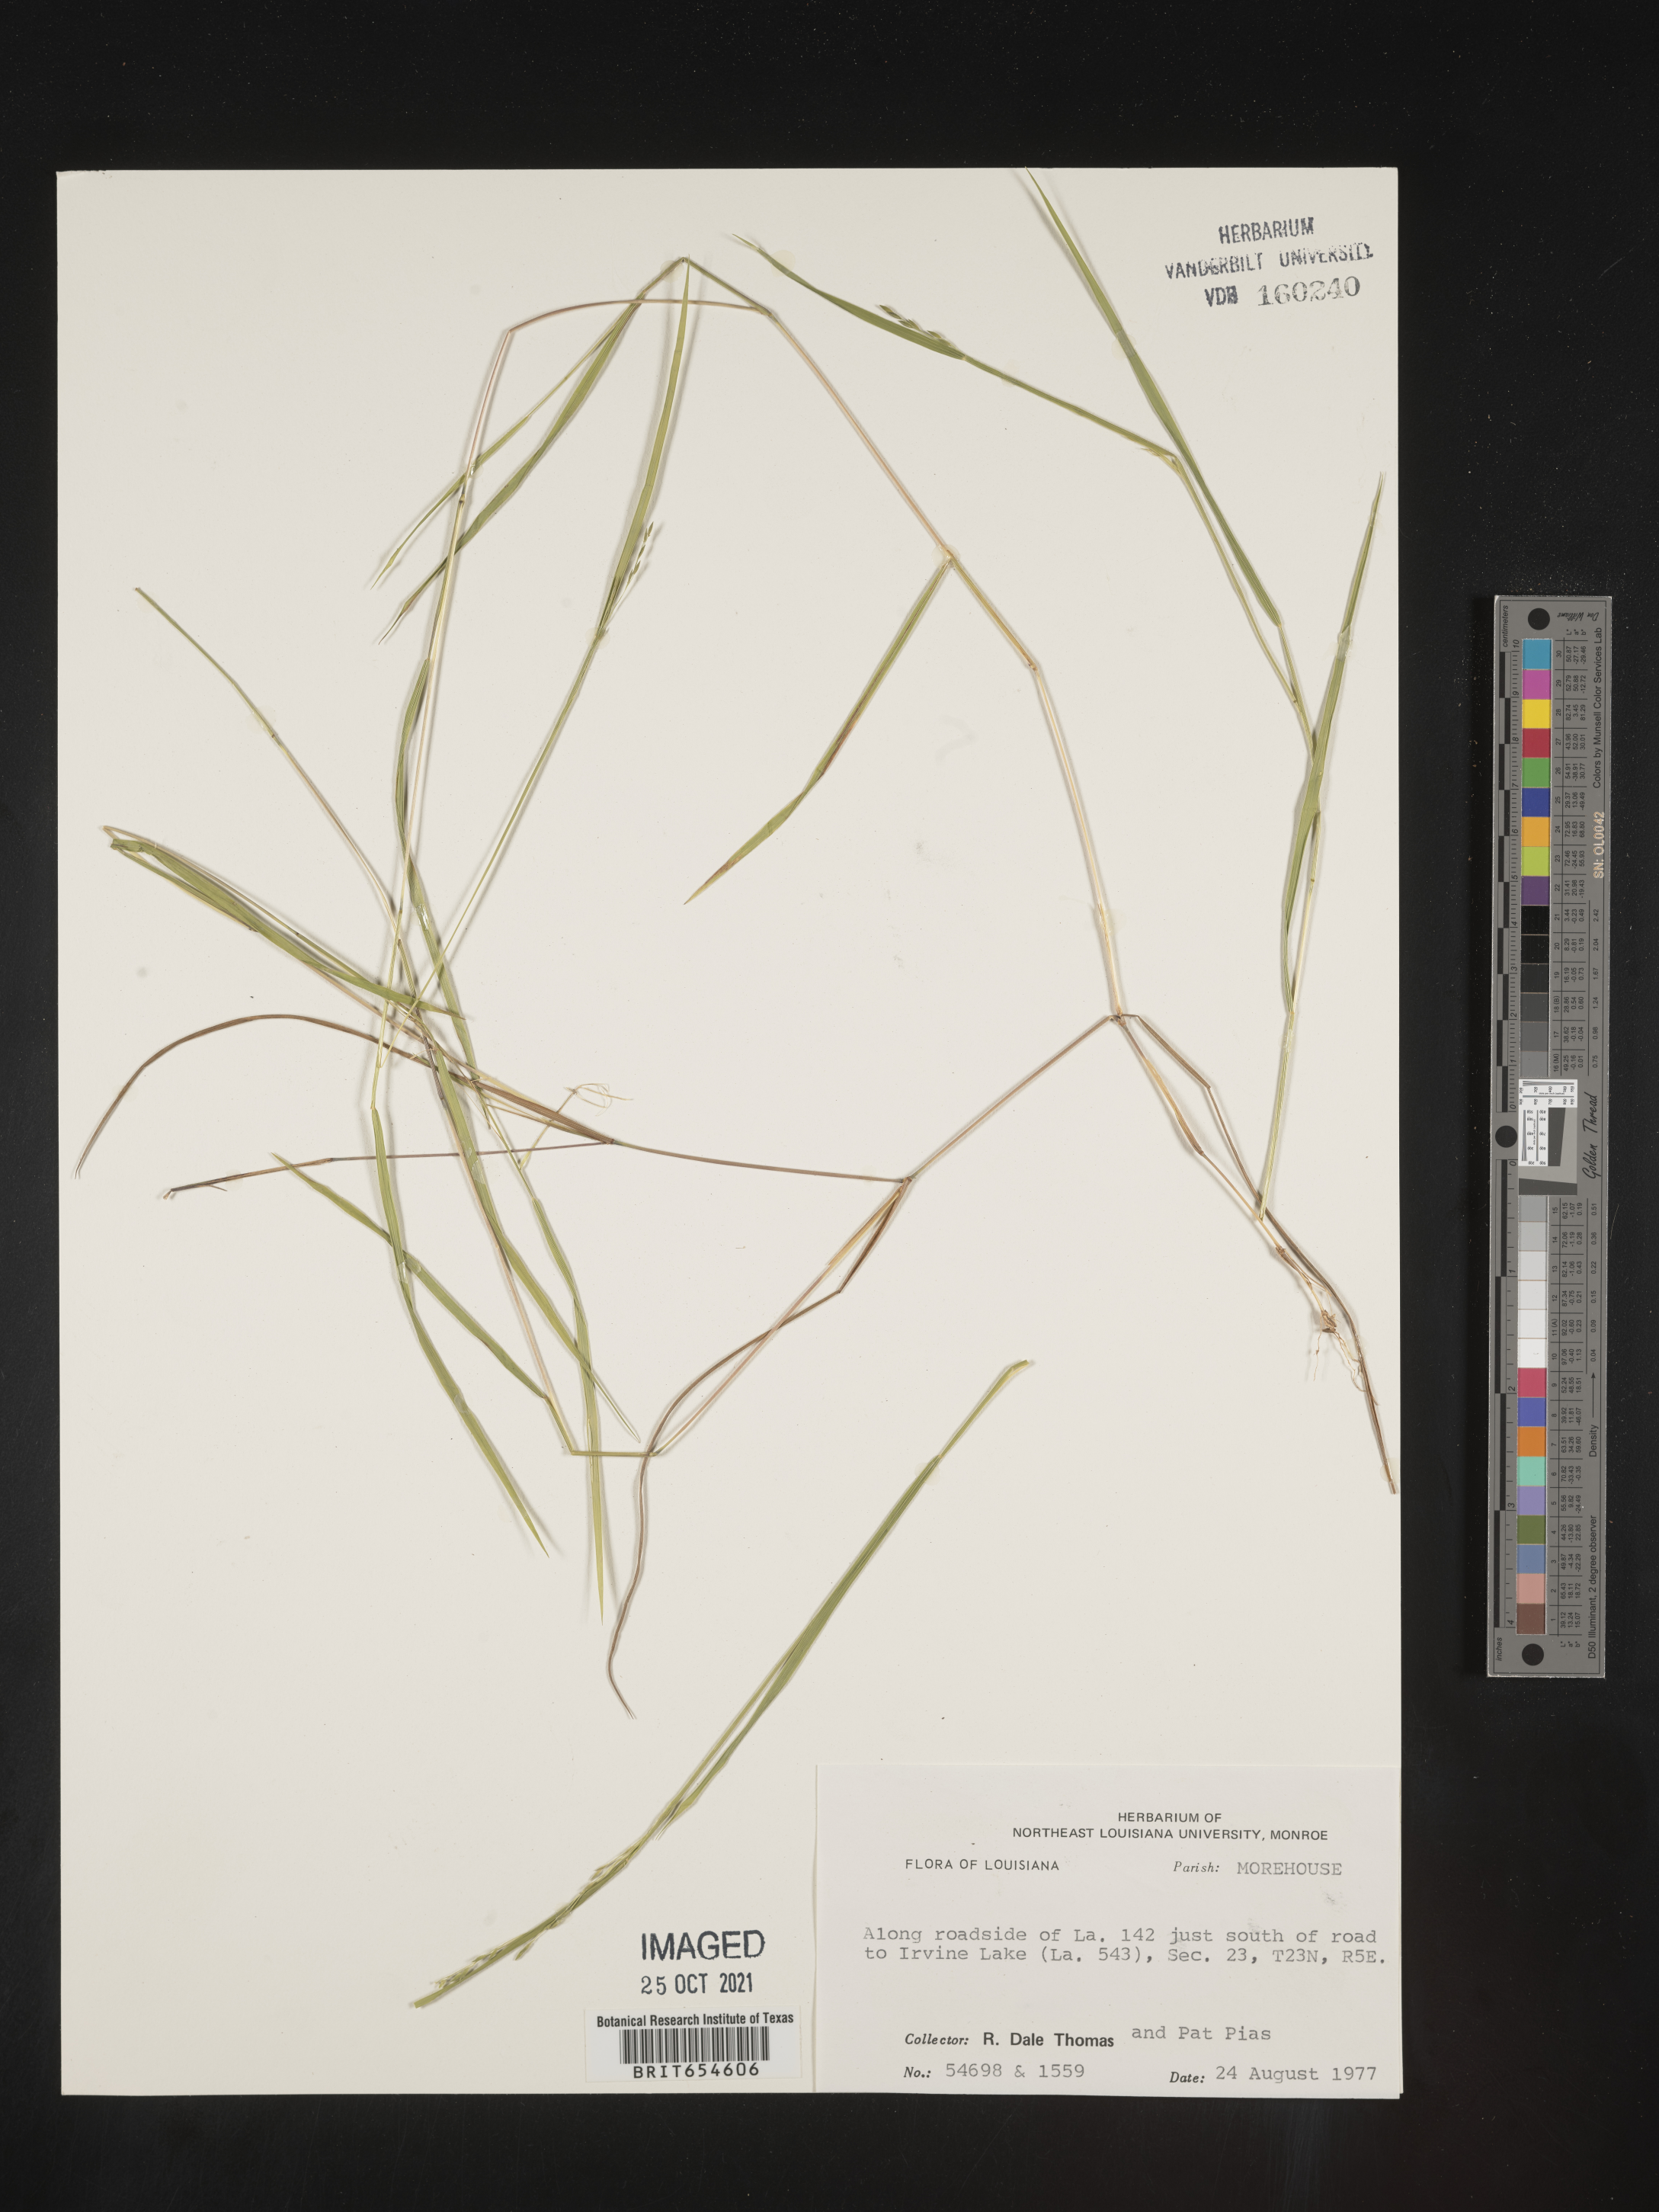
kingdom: Plantae
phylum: Tracheophyta
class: Liliopsida
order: Poales
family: Poaceae
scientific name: Poaceae
